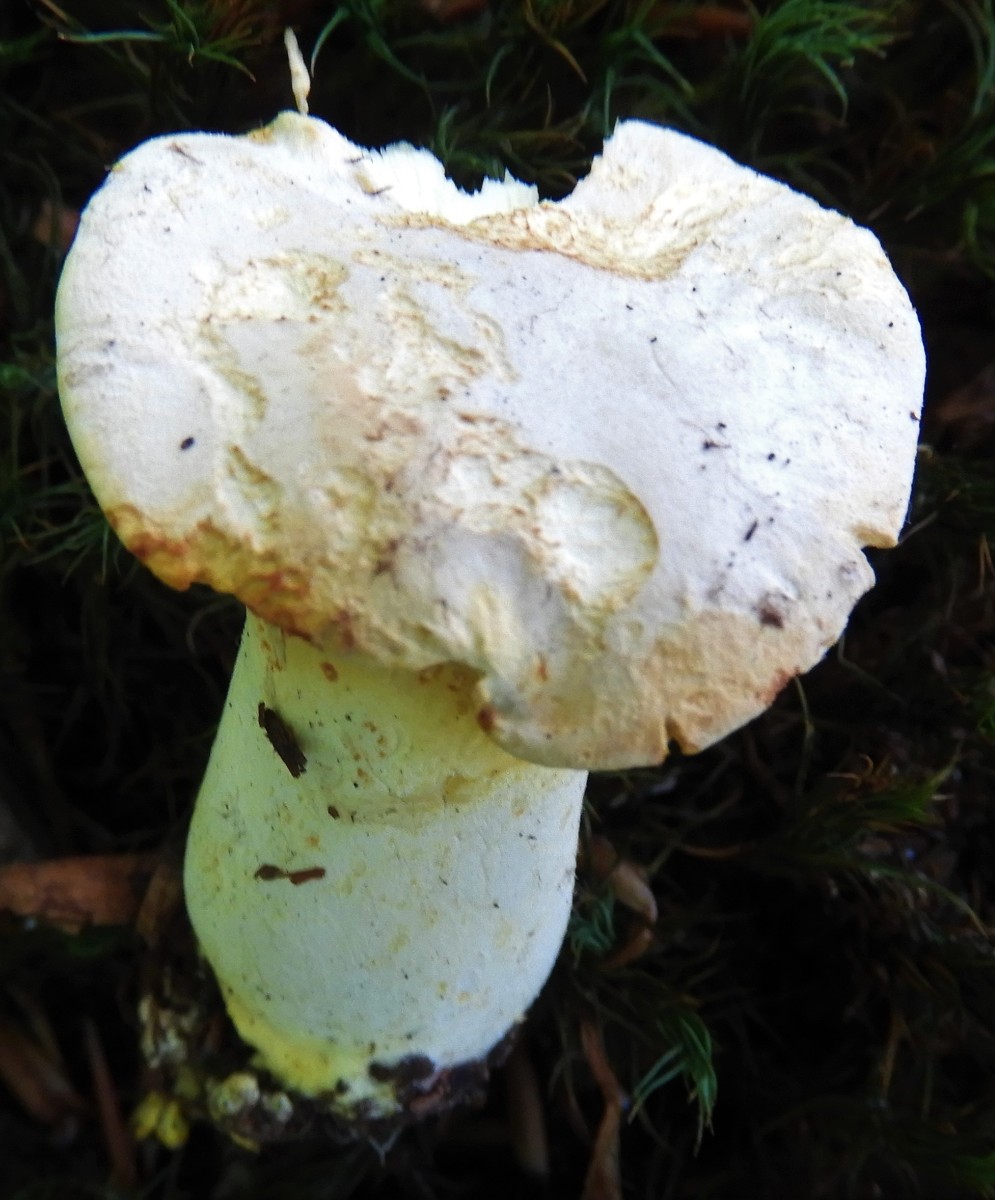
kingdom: Fungi
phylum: Basidiomycota
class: Agaricomycetes
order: Cantharellales
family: Hydnaceae
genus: Cantharellus
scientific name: Cantharellus pallens
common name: bleg kantarel
